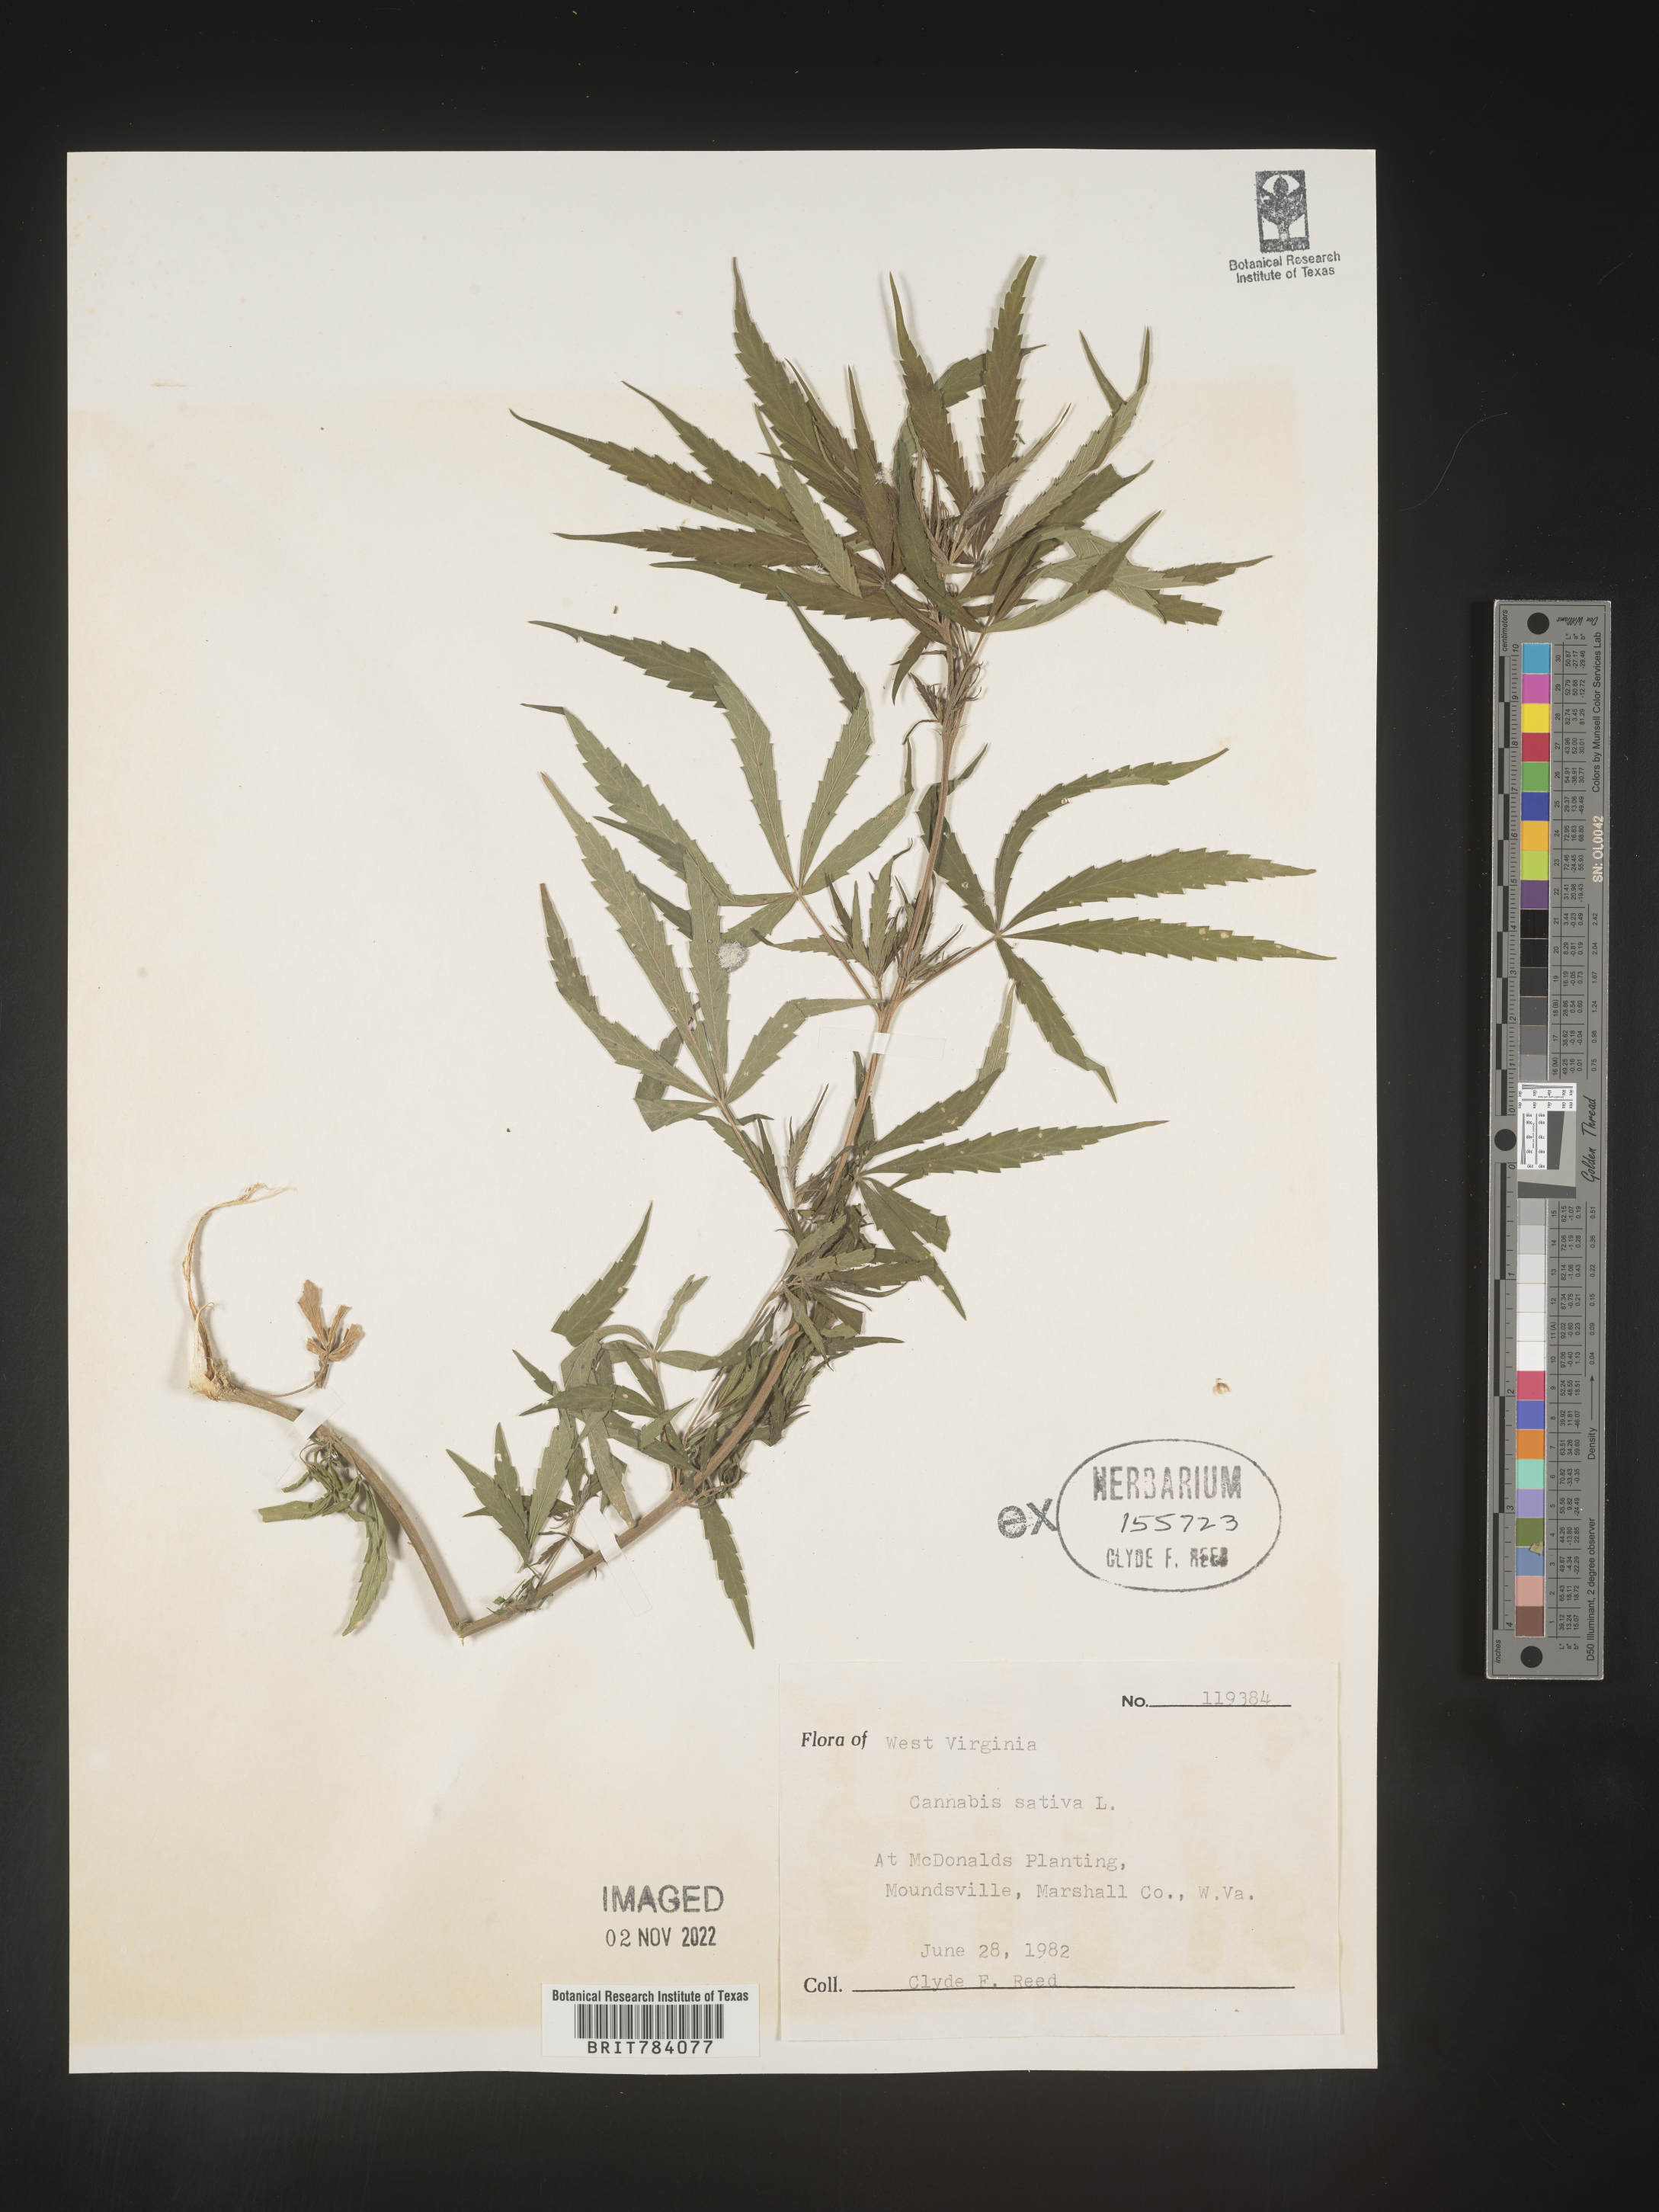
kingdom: Plantae
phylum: Tracheophyta
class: Magnoliopsida
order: Rosales
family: Cannabaceae
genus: Cannabis
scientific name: Cannabis sativa
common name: Hemp
